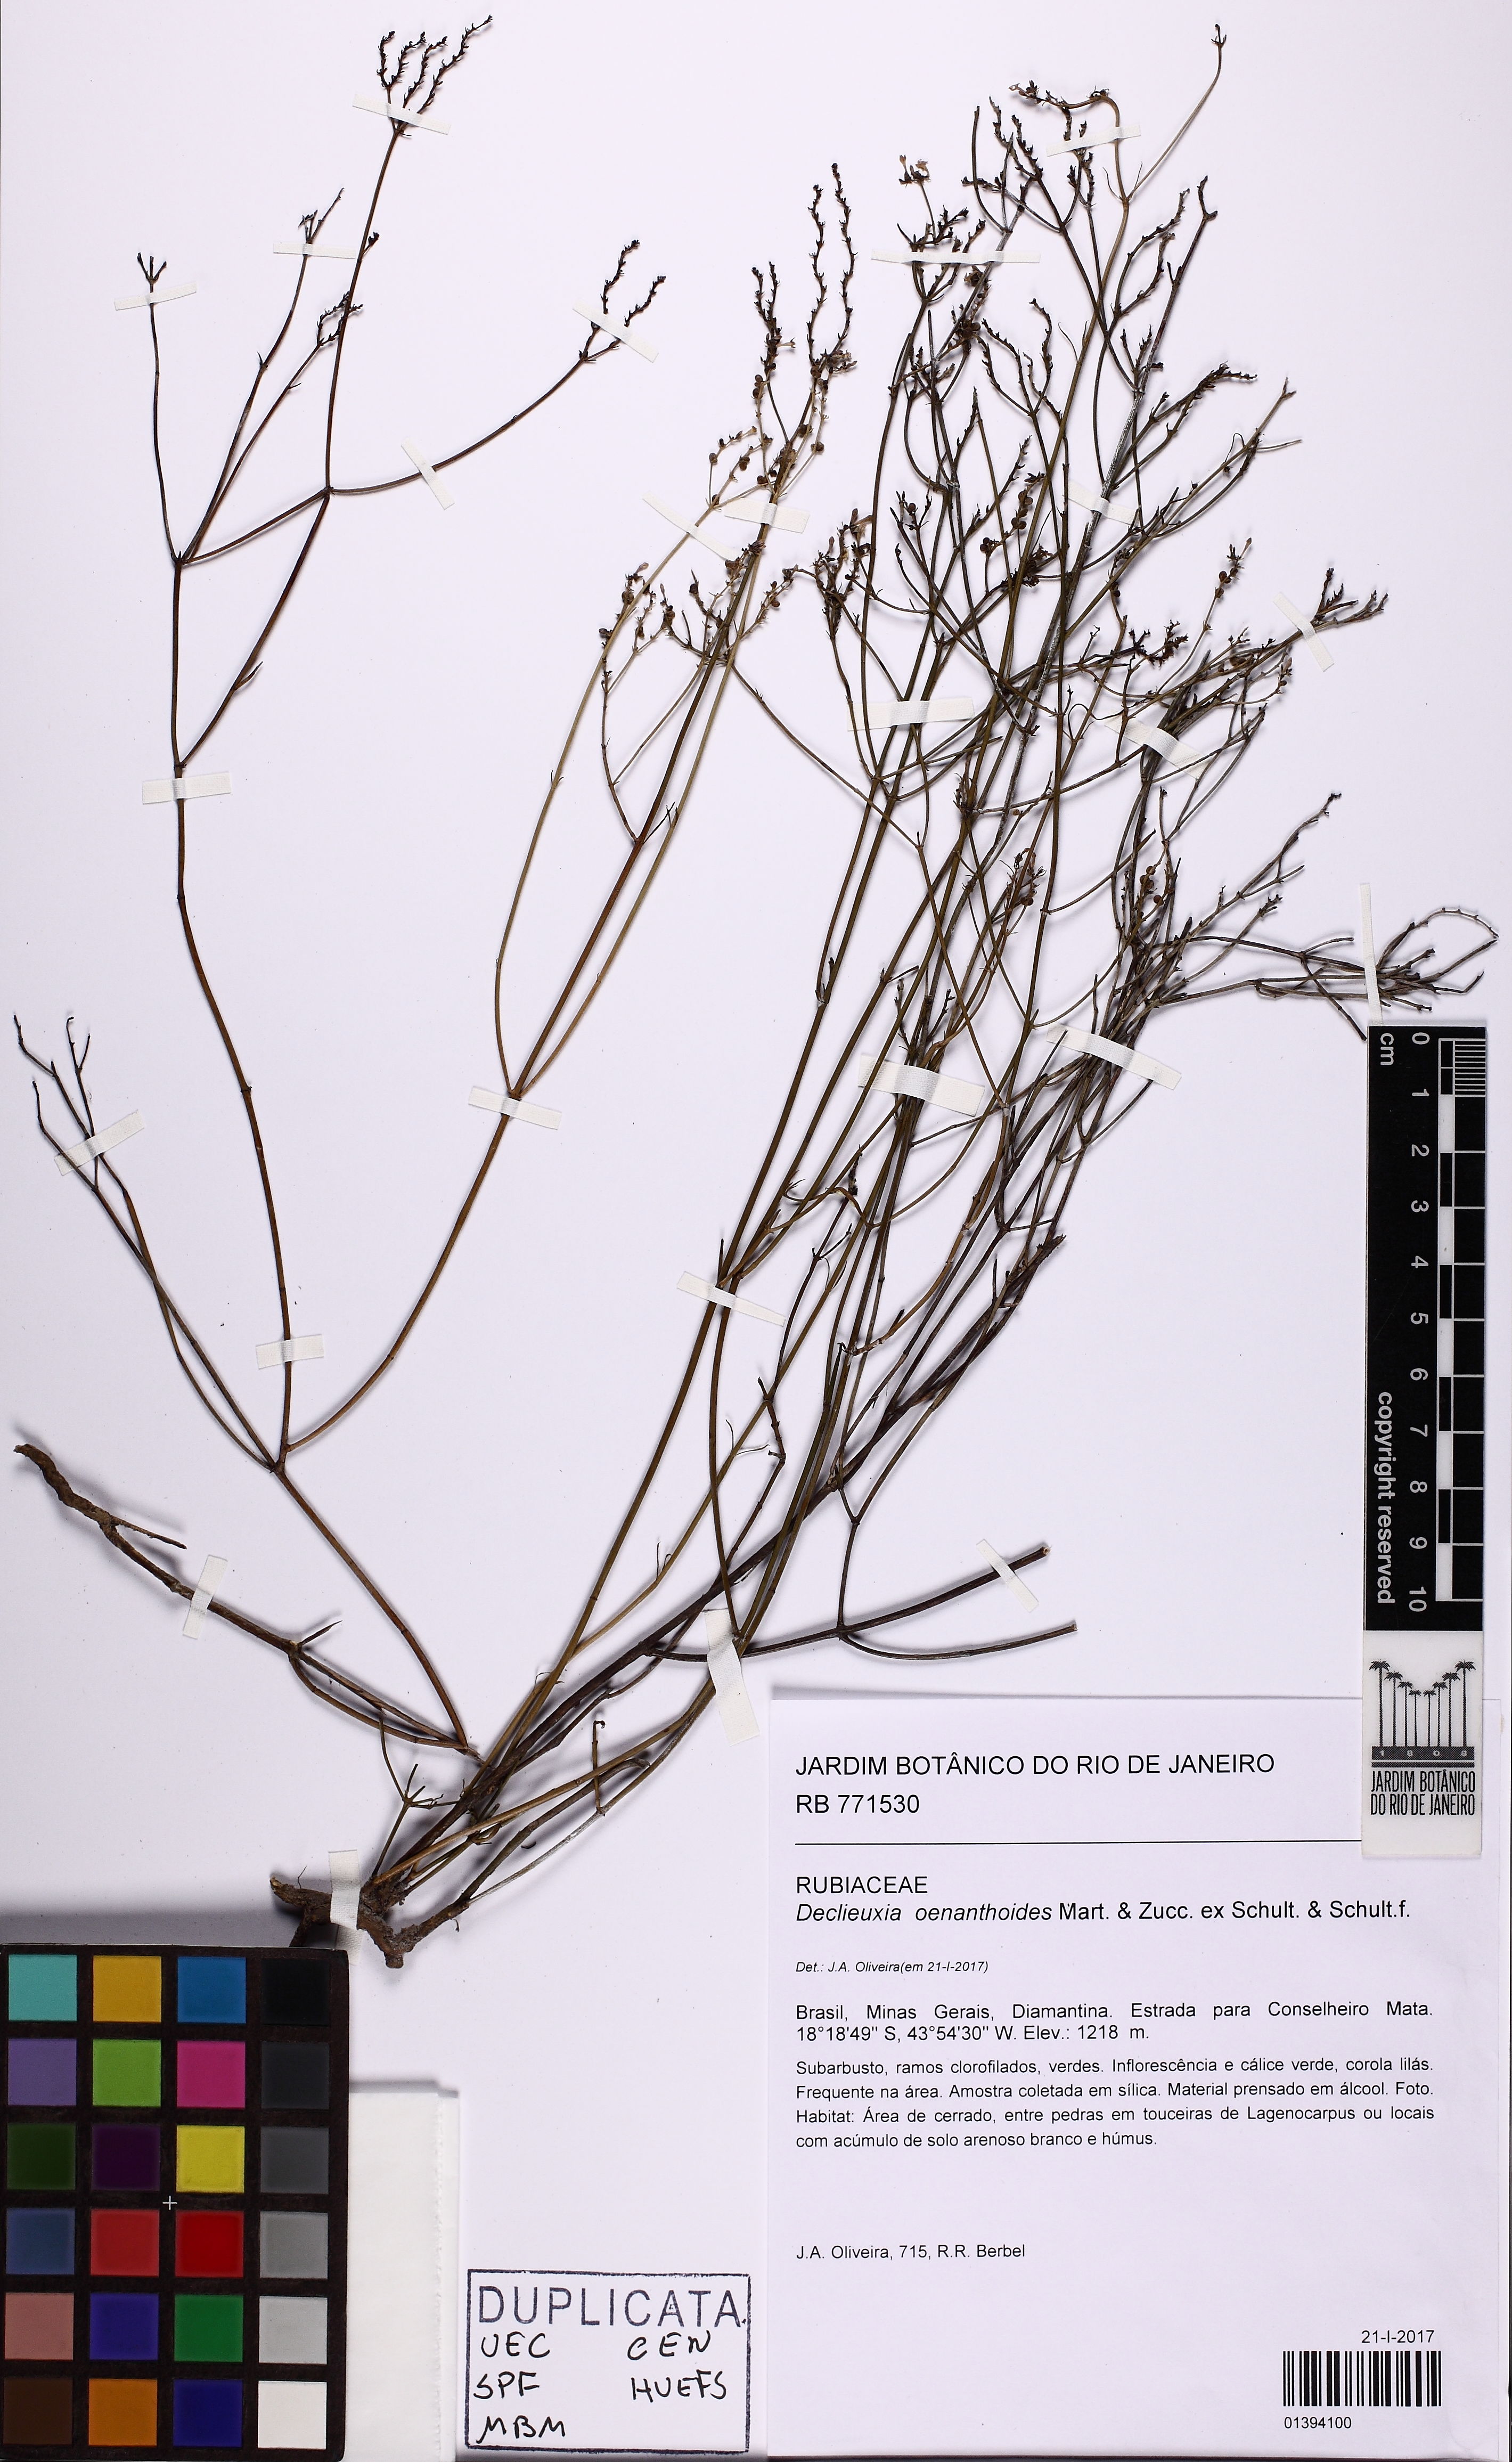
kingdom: Plantae
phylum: Tracheophyta
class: Magnoliopsida
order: Gentianales
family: Rubiaceae
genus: Declieuxia
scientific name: Declieuxia oenanthoides
